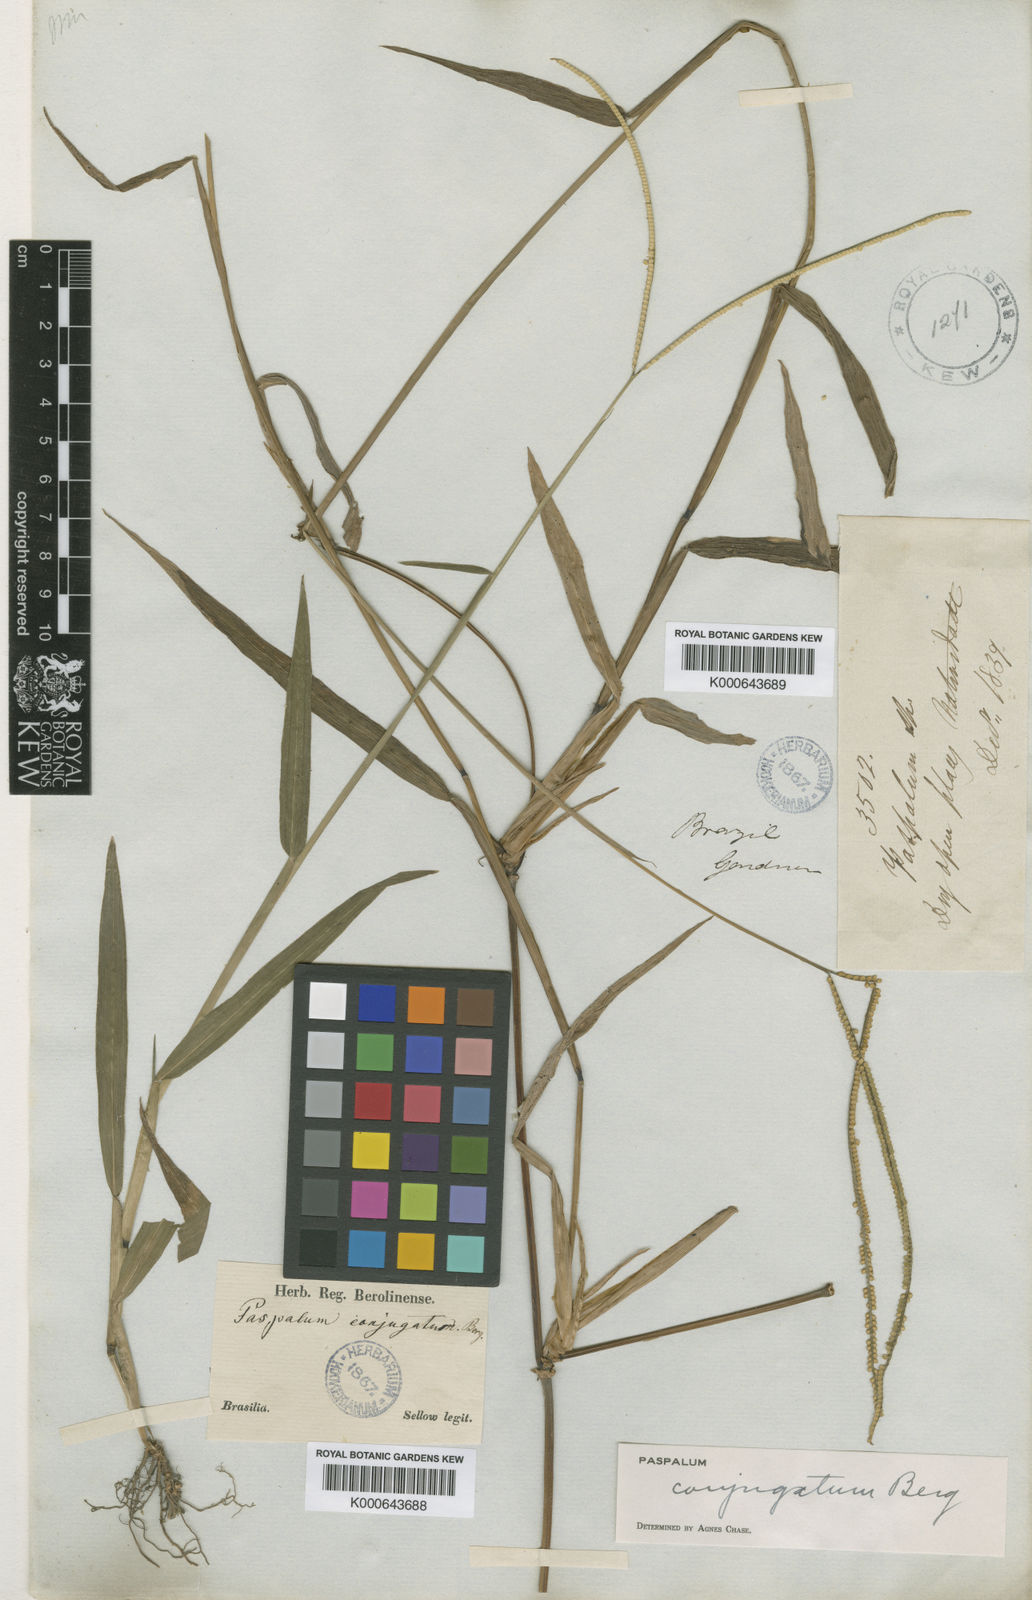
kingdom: Plantae
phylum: Tracheophyta
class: Liliopsida
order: Poales
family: Poaceae
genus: Paspalum
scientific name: Paspalum conjugatum
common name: Hilograss
